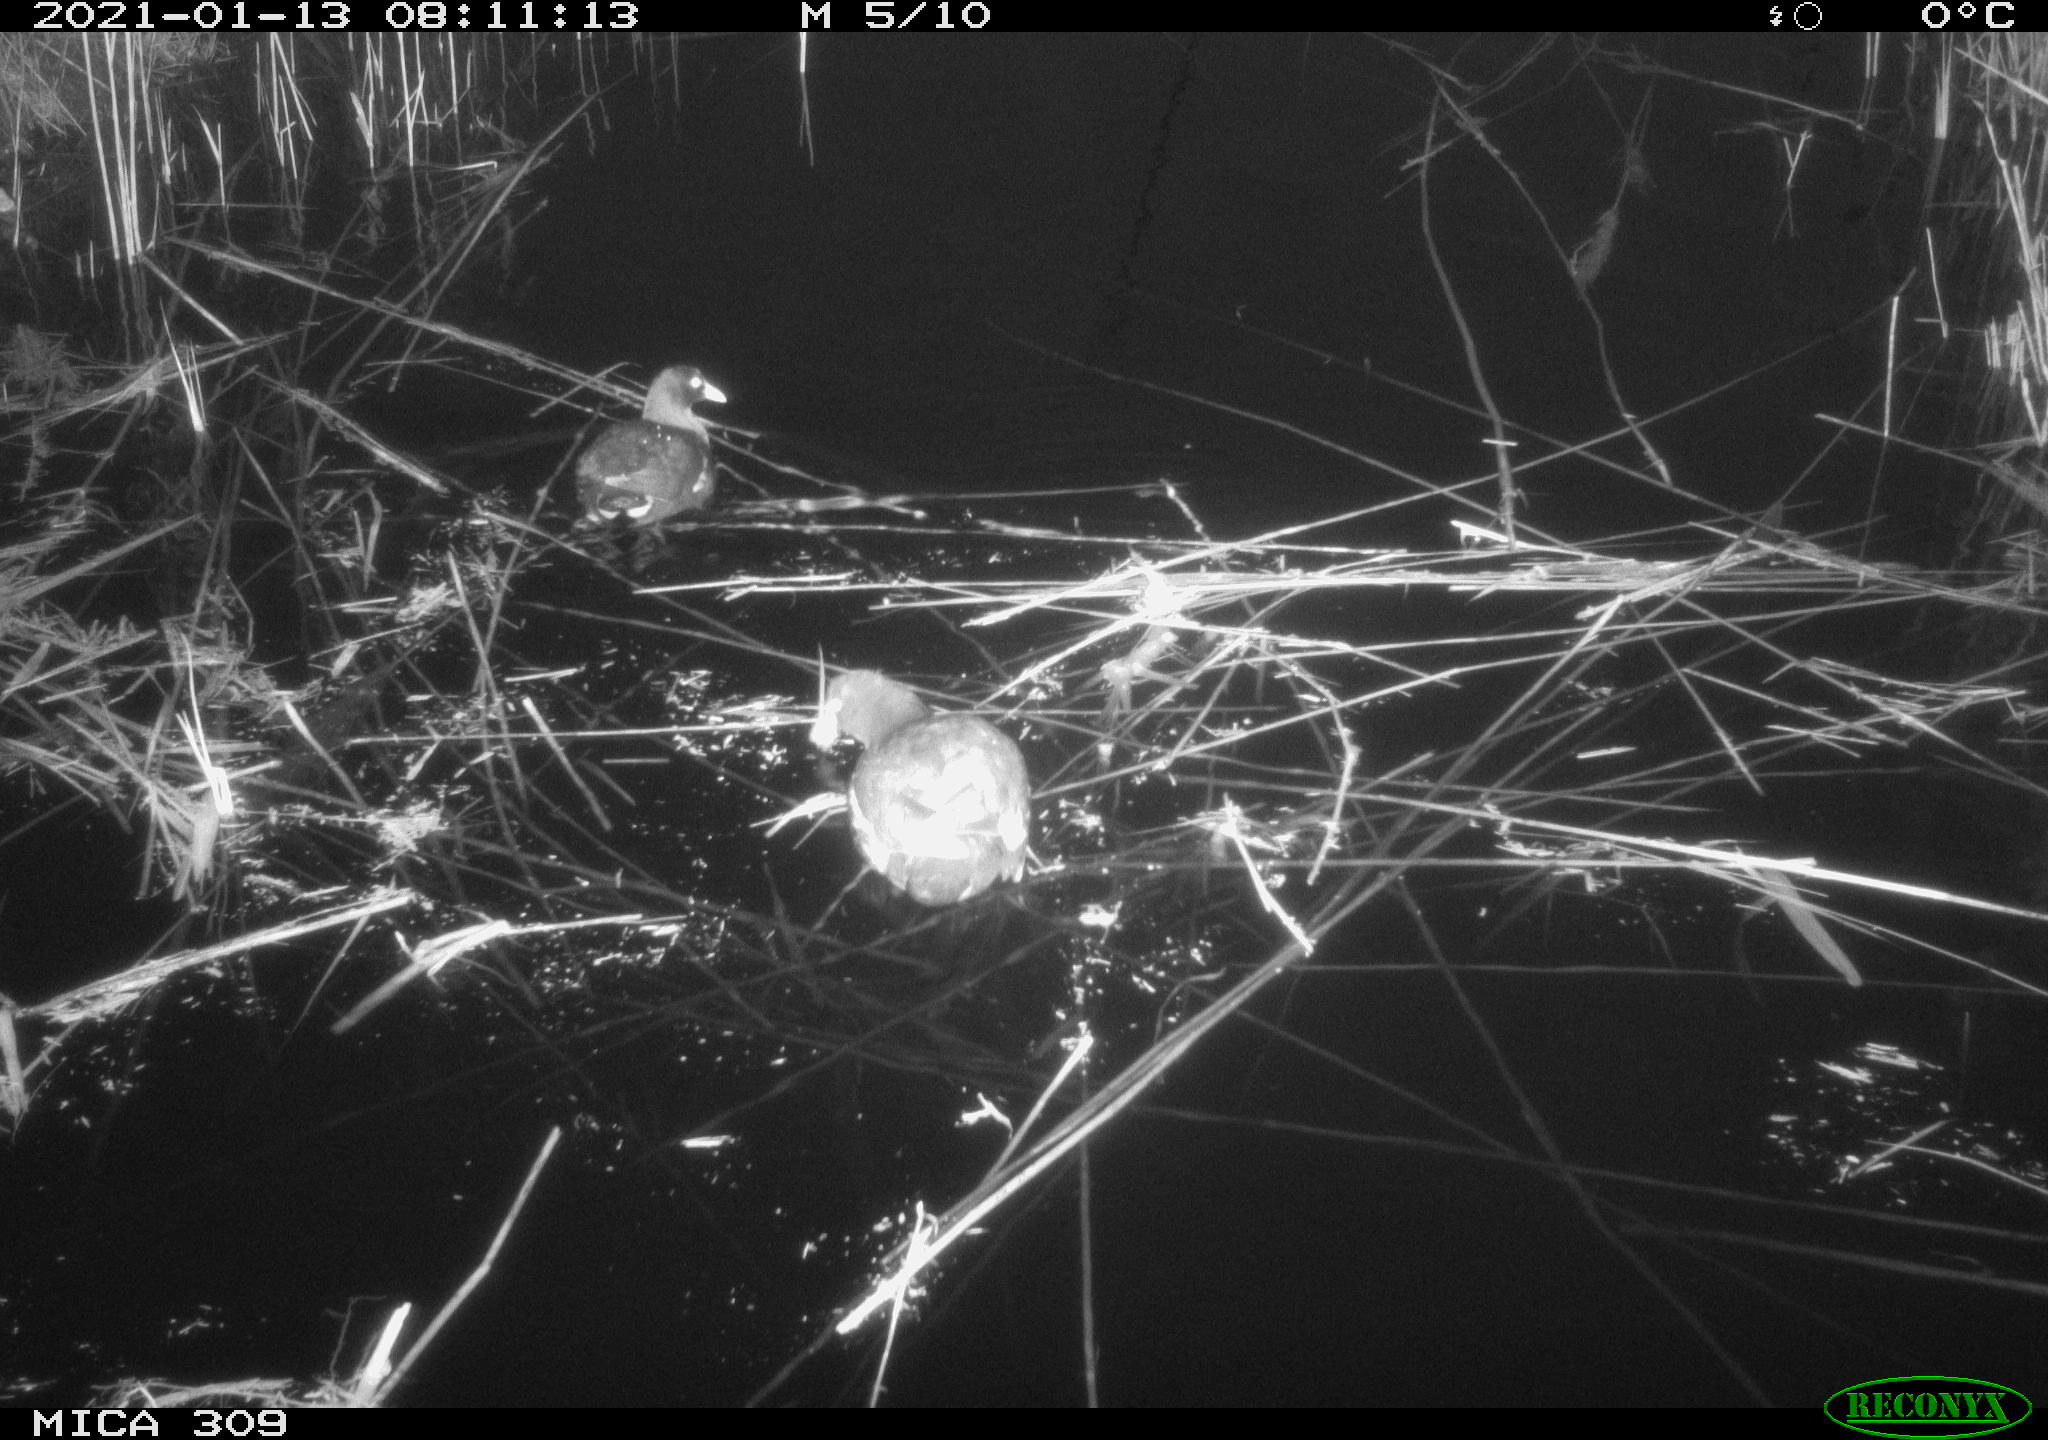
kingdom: Animalia
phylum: Chordata
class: Aves
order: Gruiformes
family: Rallidae
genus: Gallinula
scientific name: Gallinula chloropus
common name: Common moorhen
